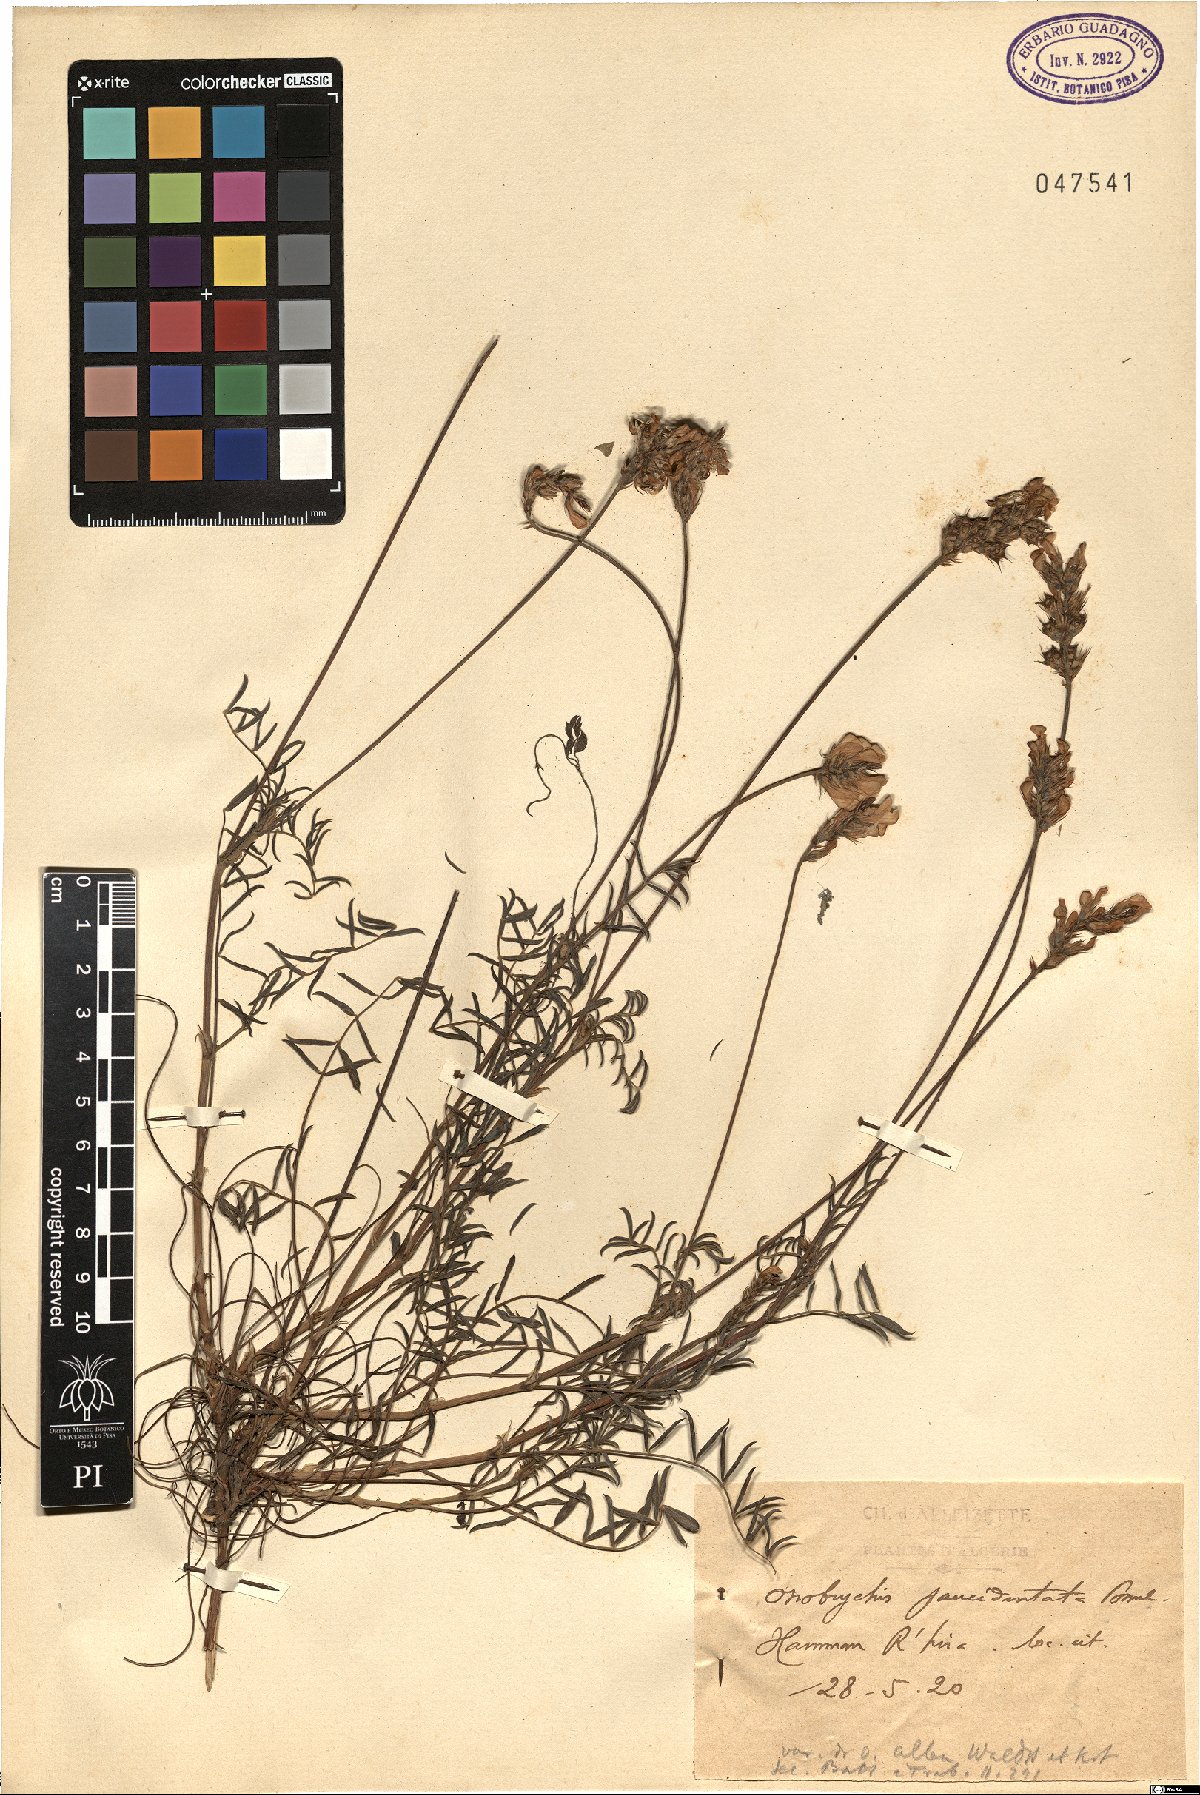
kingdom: Plantae
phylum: Tracheophyta
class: Magnoliopsida
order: Fabales
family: Fabaceae
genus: Onobrychis
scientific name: Onobrychis alba
